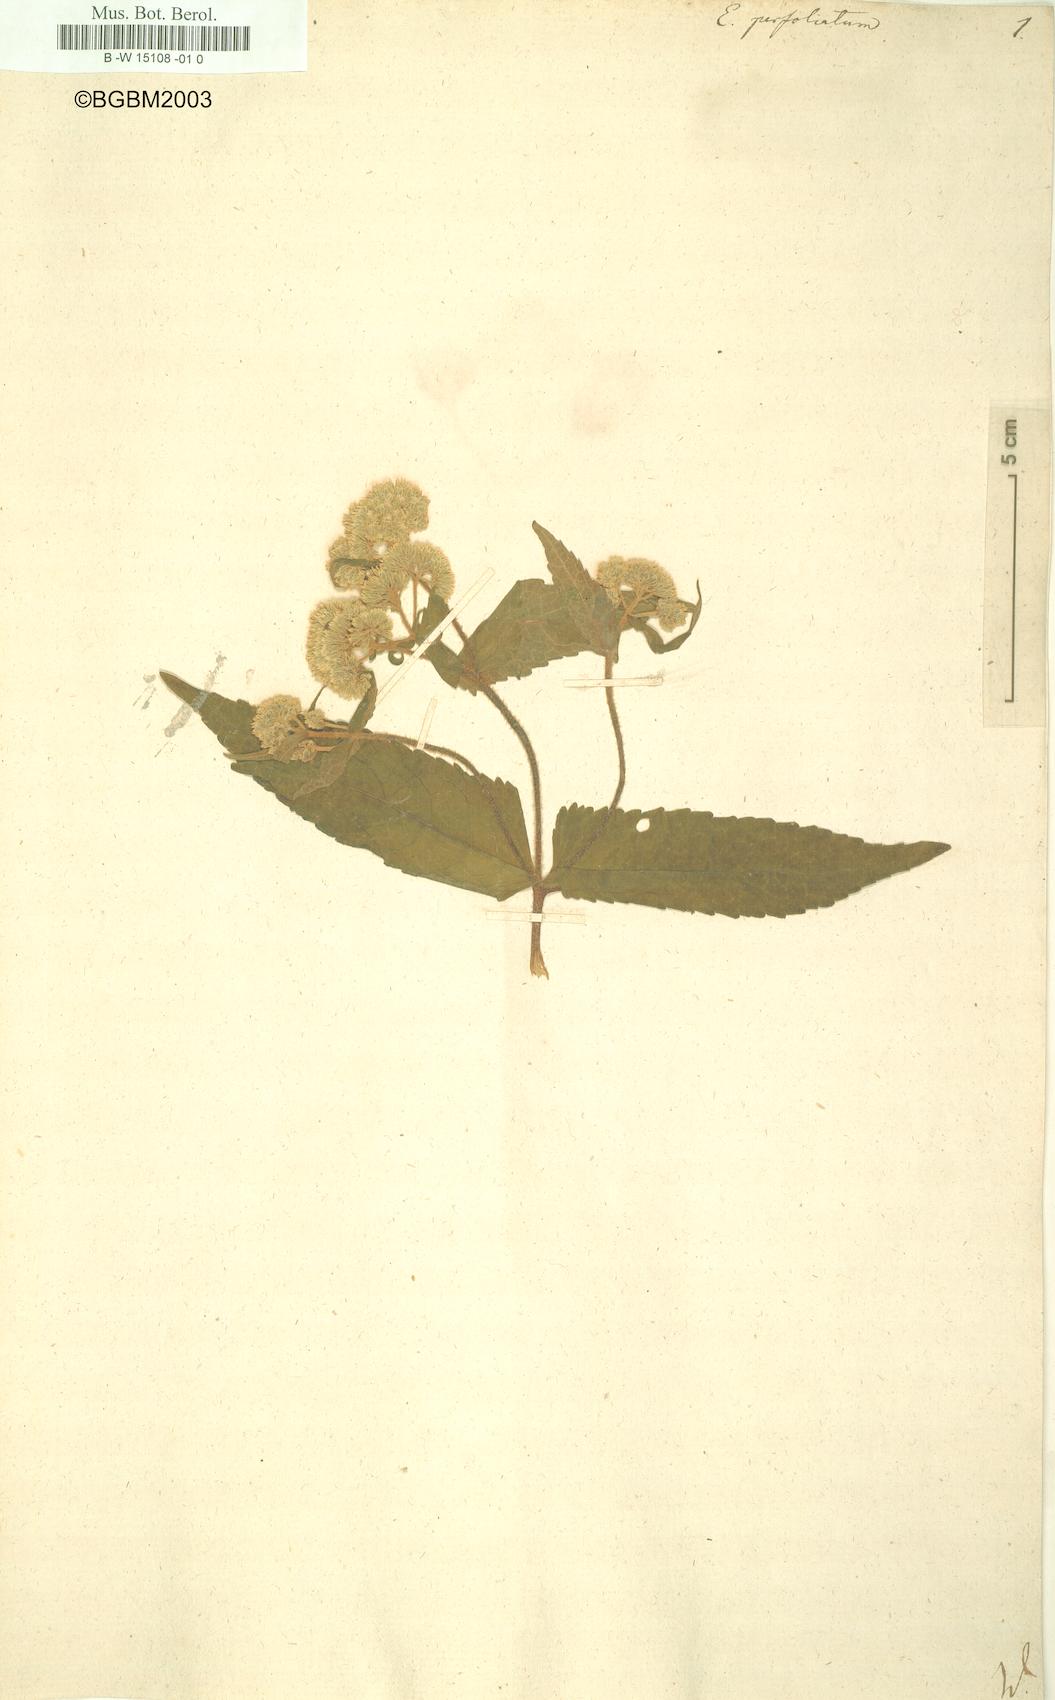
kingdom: Plantae
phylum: Tracheophyta
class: Magnoliopsida
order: Asterales
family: Asteraceae
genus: Eupatorium
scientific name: Eupatorium perfoliatum
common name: Boneset
